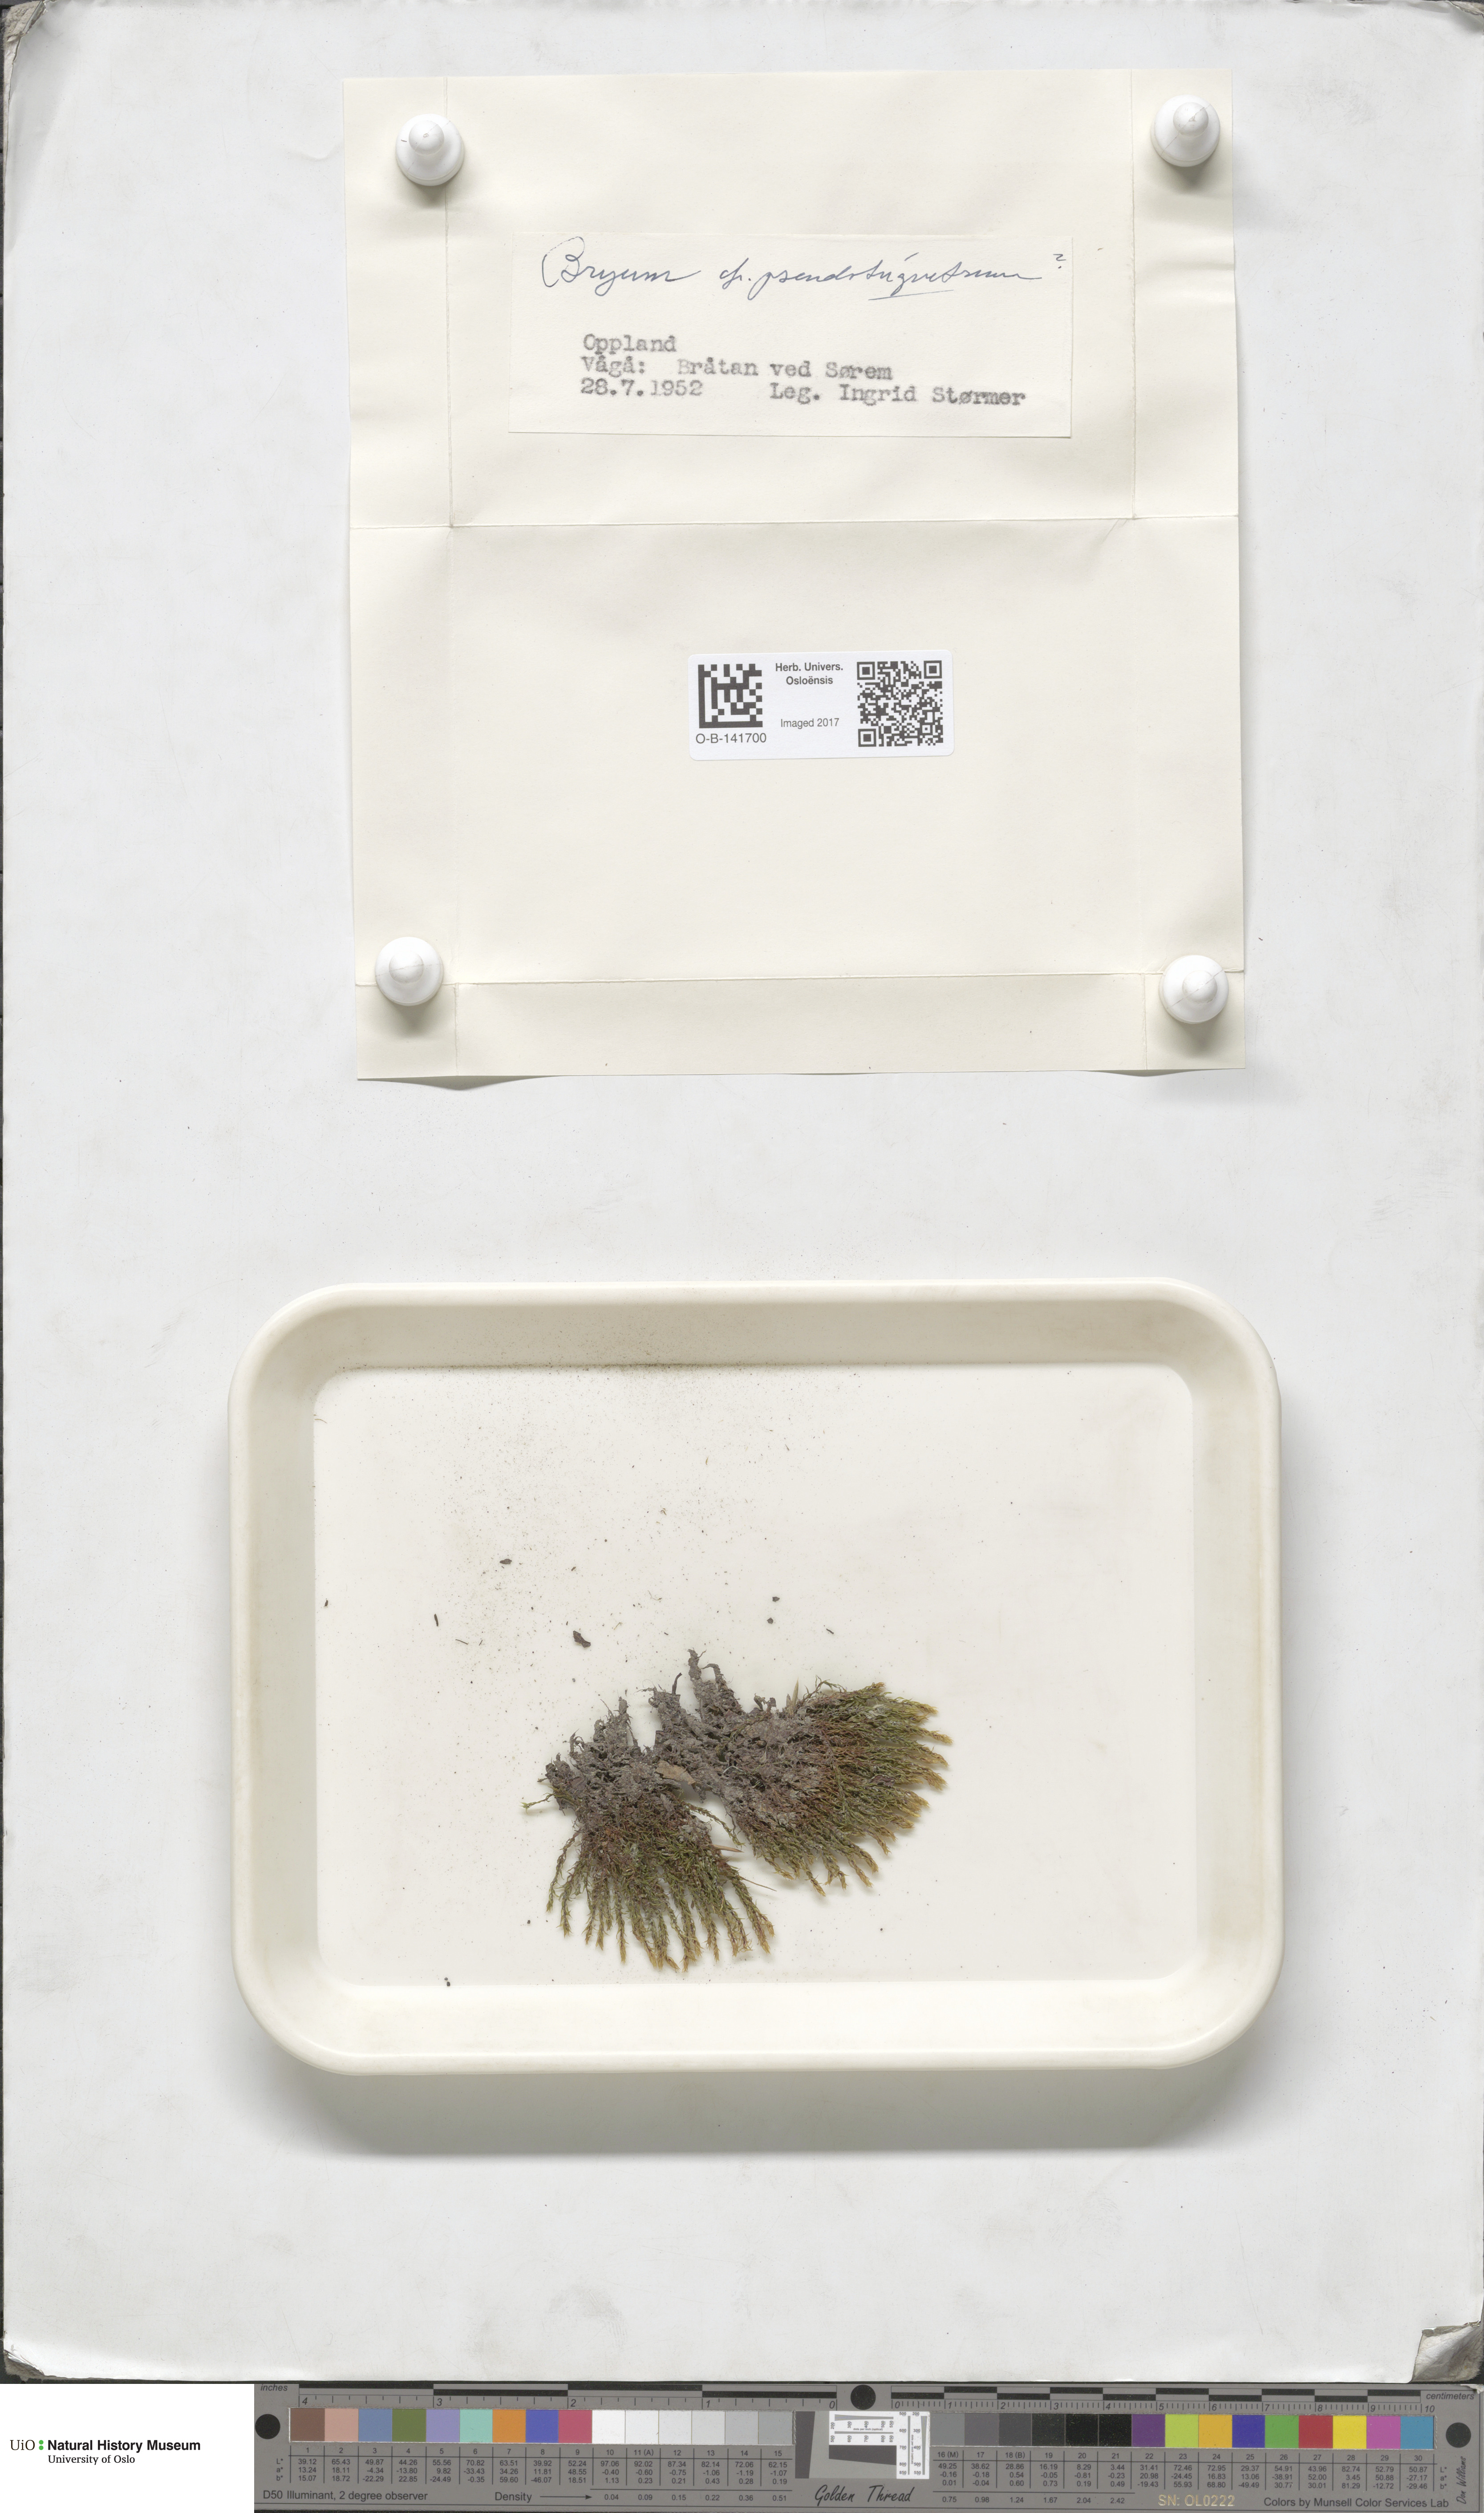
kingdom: Plantae
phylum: Bryophyta
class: Bryopsida
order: Bryales
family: Bryaceae
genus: Ptychostomum
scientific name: Ptychostomum pseudotriquetrum
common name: Long-leaved thread moss
